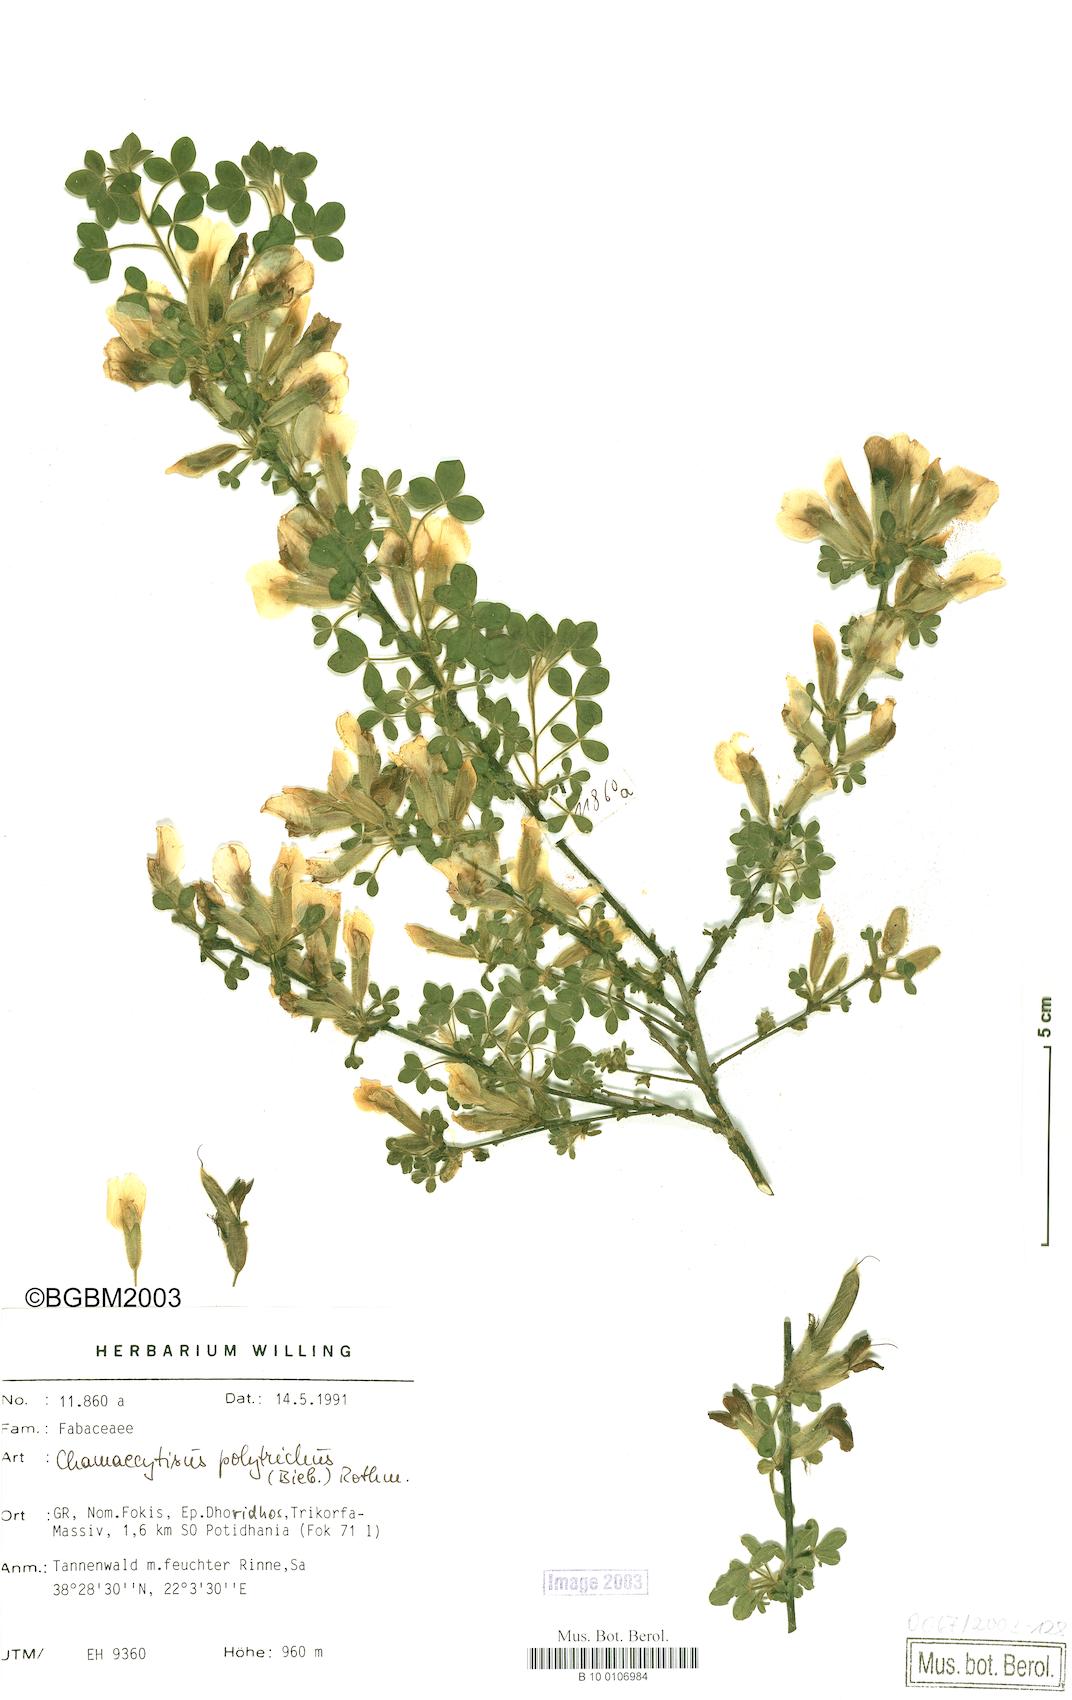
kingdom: Plantae
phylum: Tracheophyta
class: Magnoliopsida
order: Fabales
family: Fabaceae
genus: Chamaecytisus
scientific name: Chamaecytisus hirsutus
